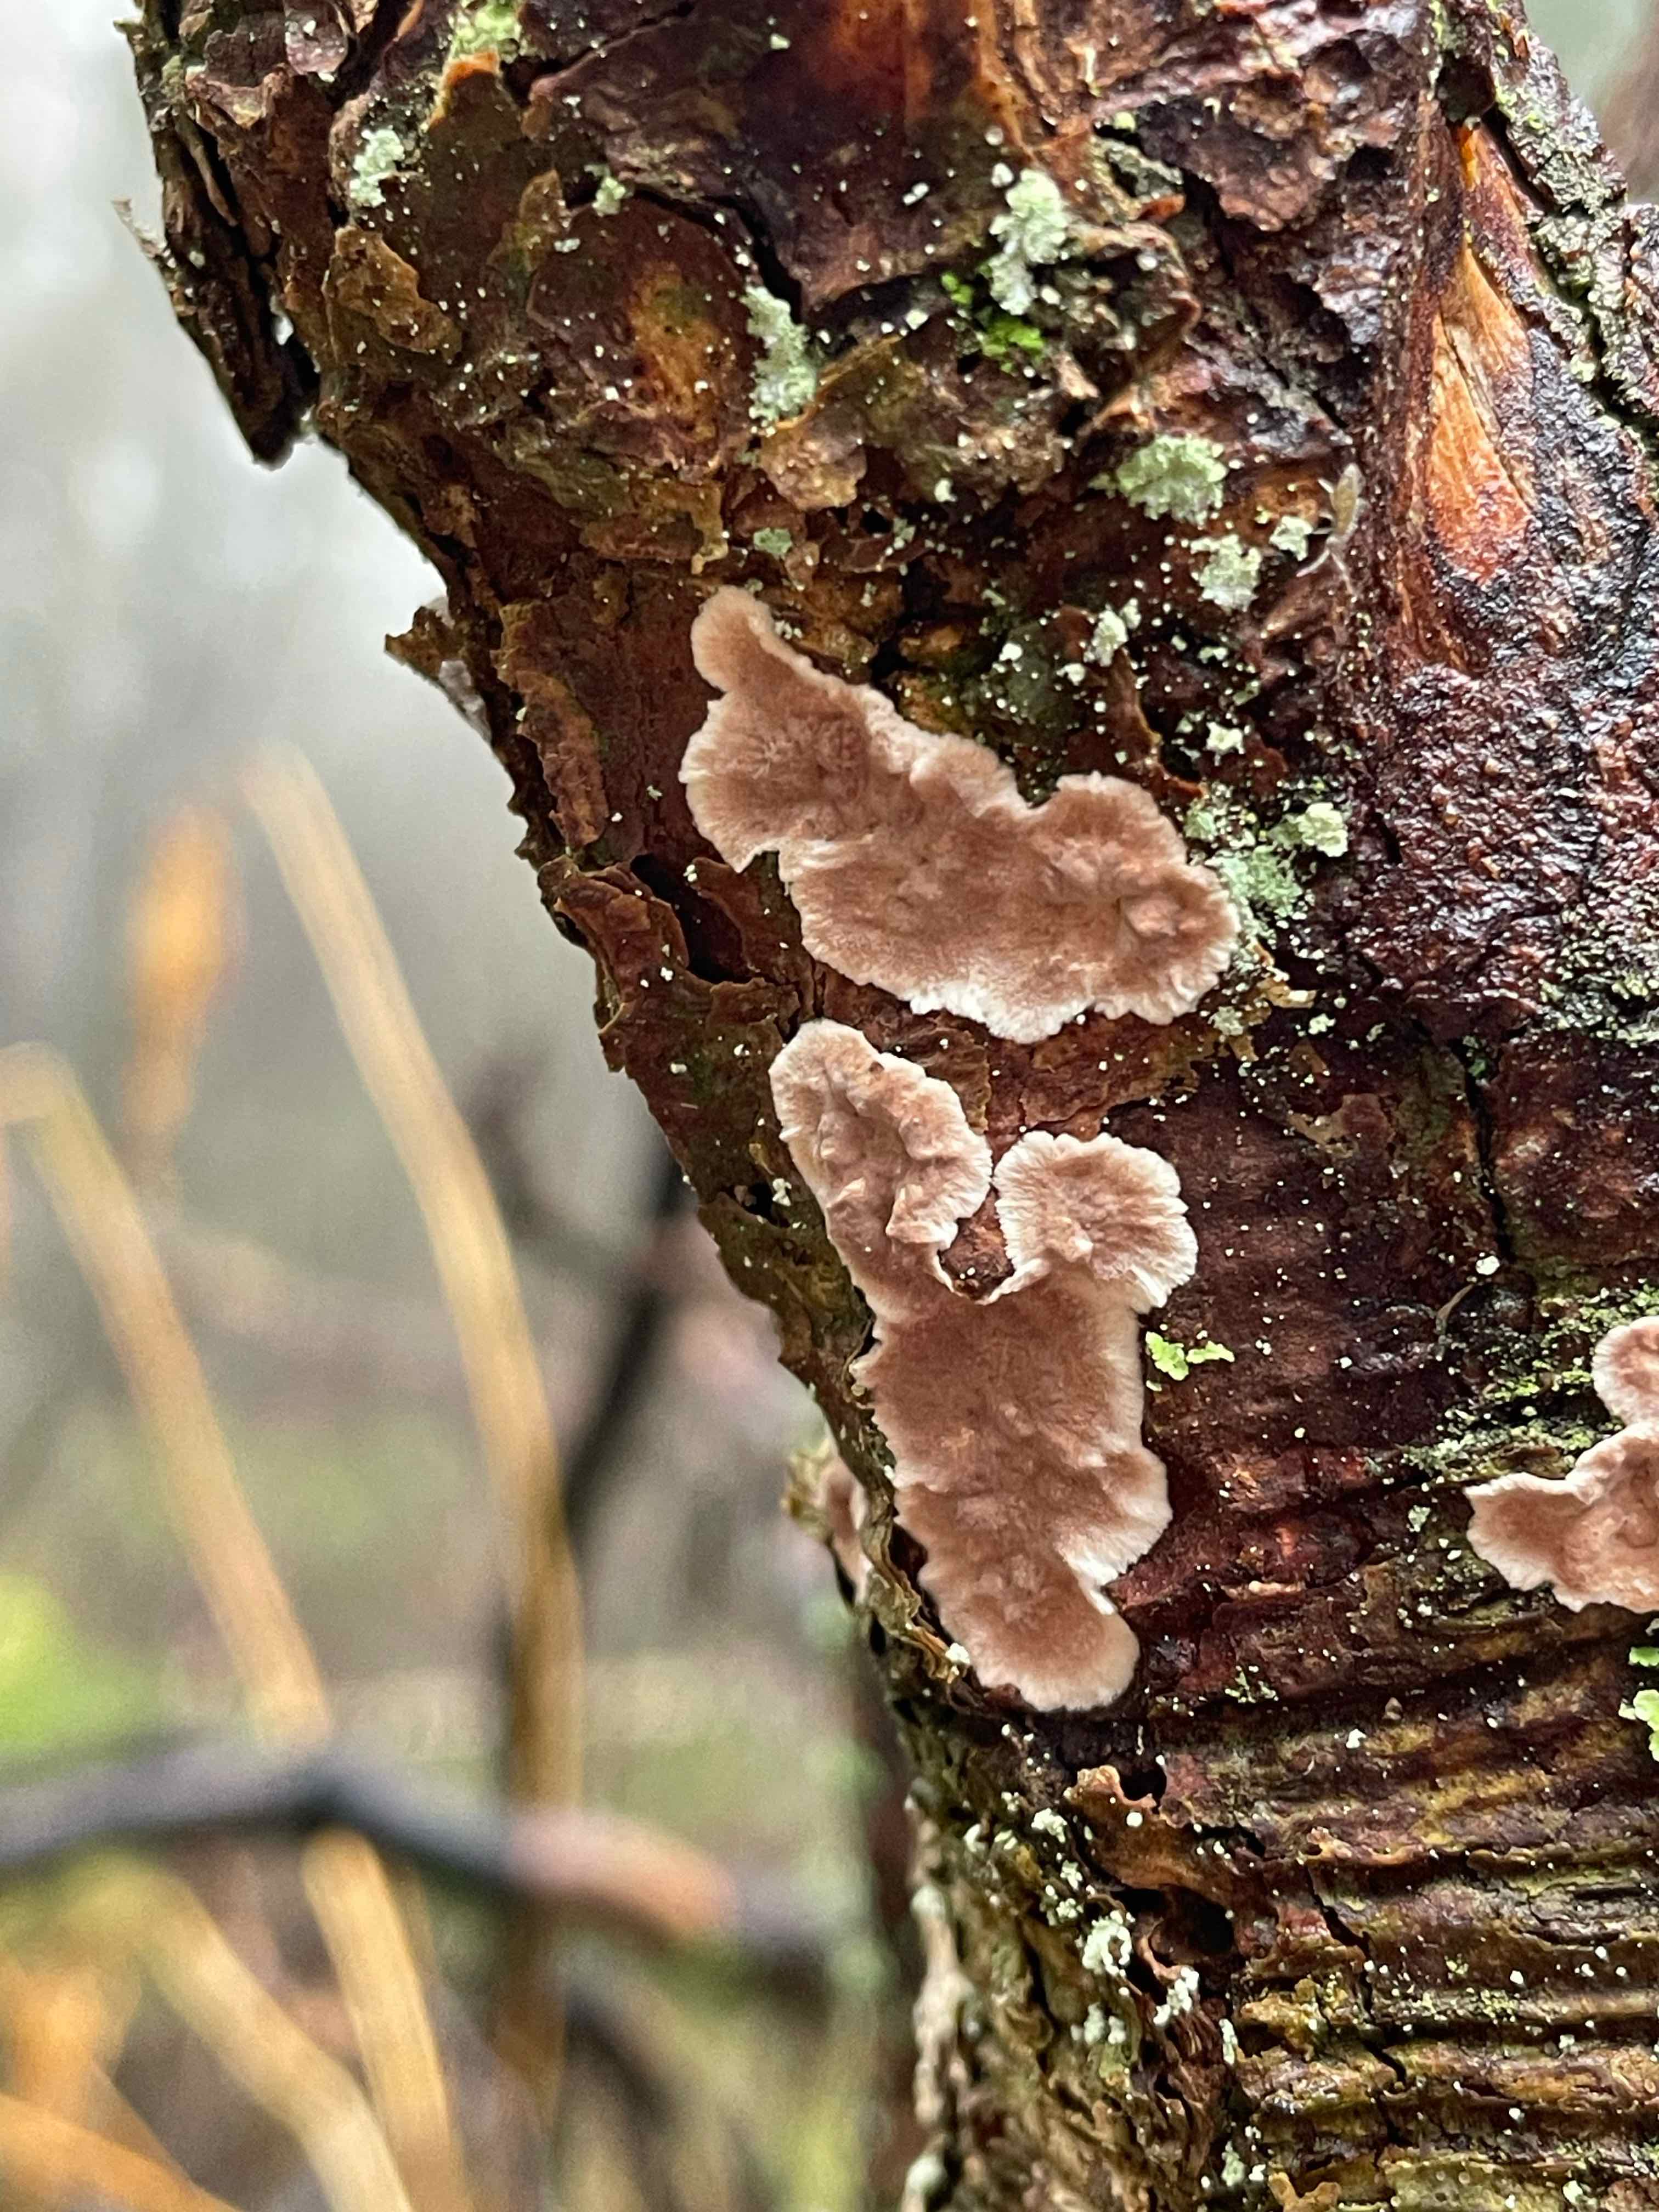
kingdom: Fungi
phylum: Basidiomycota
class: Agaricomycetes
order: Corticiales
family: Corticiaceae
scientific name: Corticiaceae
